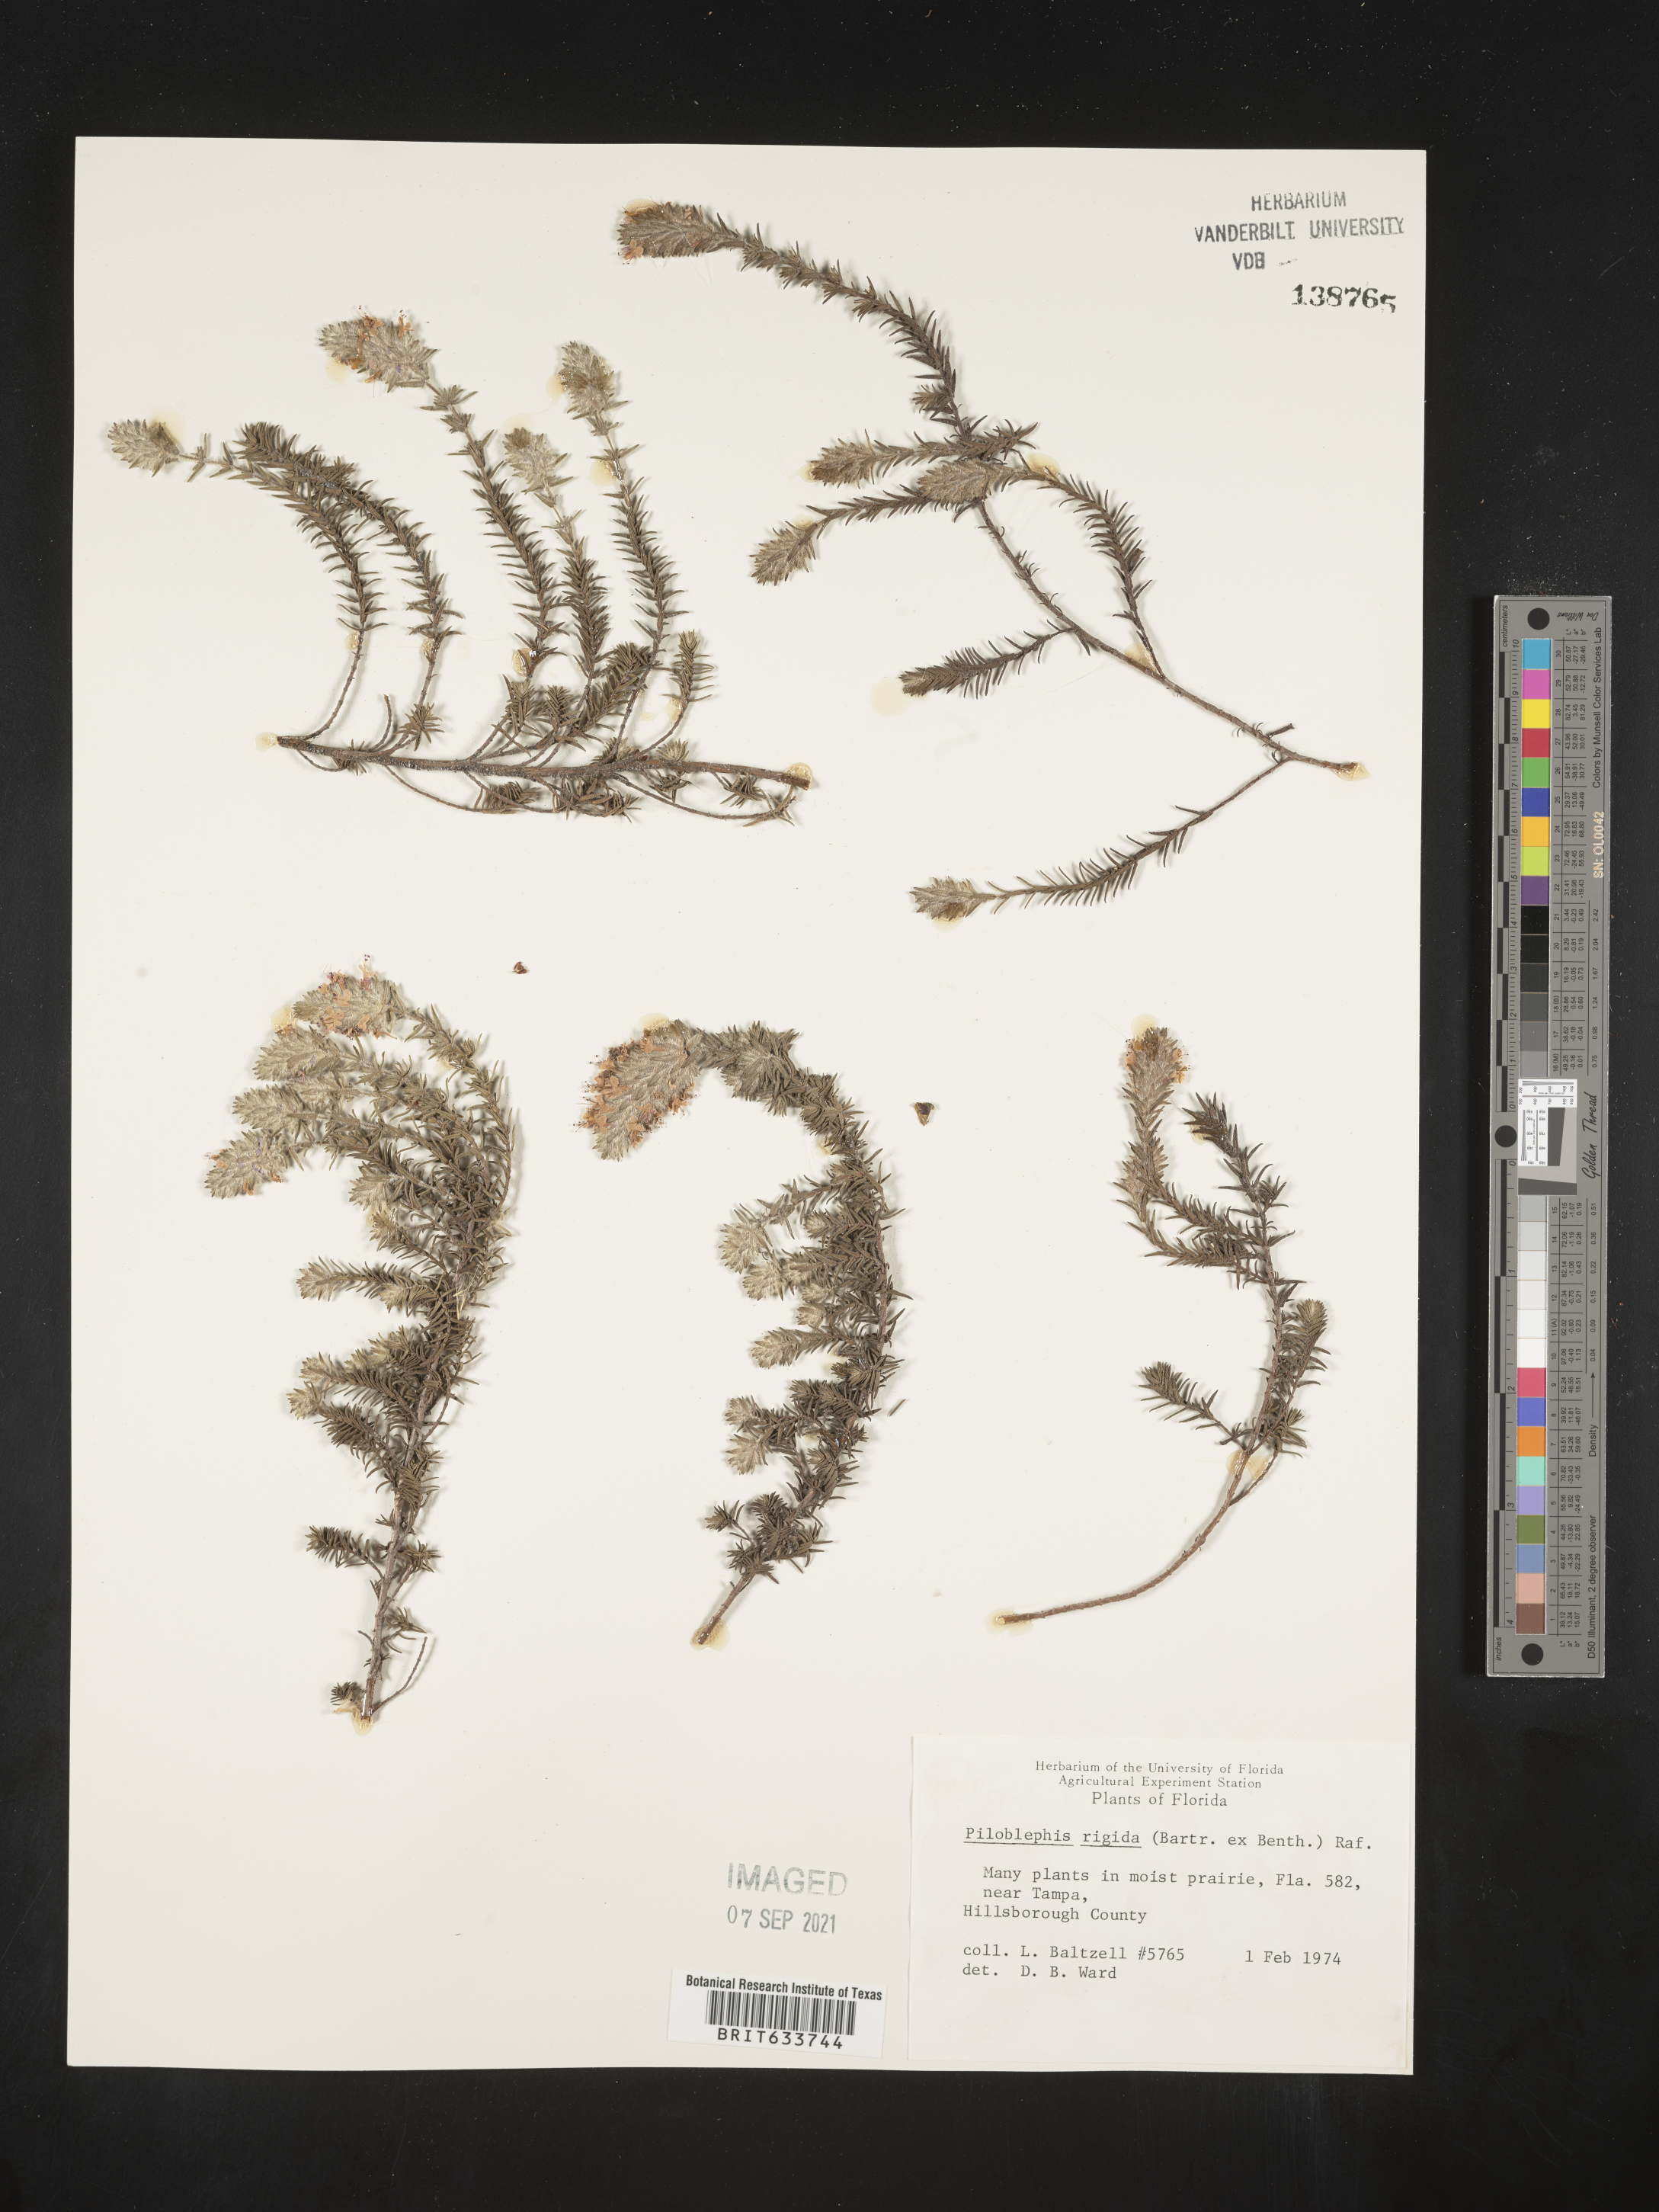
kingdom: Plantae
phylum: Tracheophyta
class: Magnoliopsida
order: Lamiales
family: Lamiaceae
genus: Piloblephis
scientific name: Piloblephis rigida
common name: Wild pennyroyal
